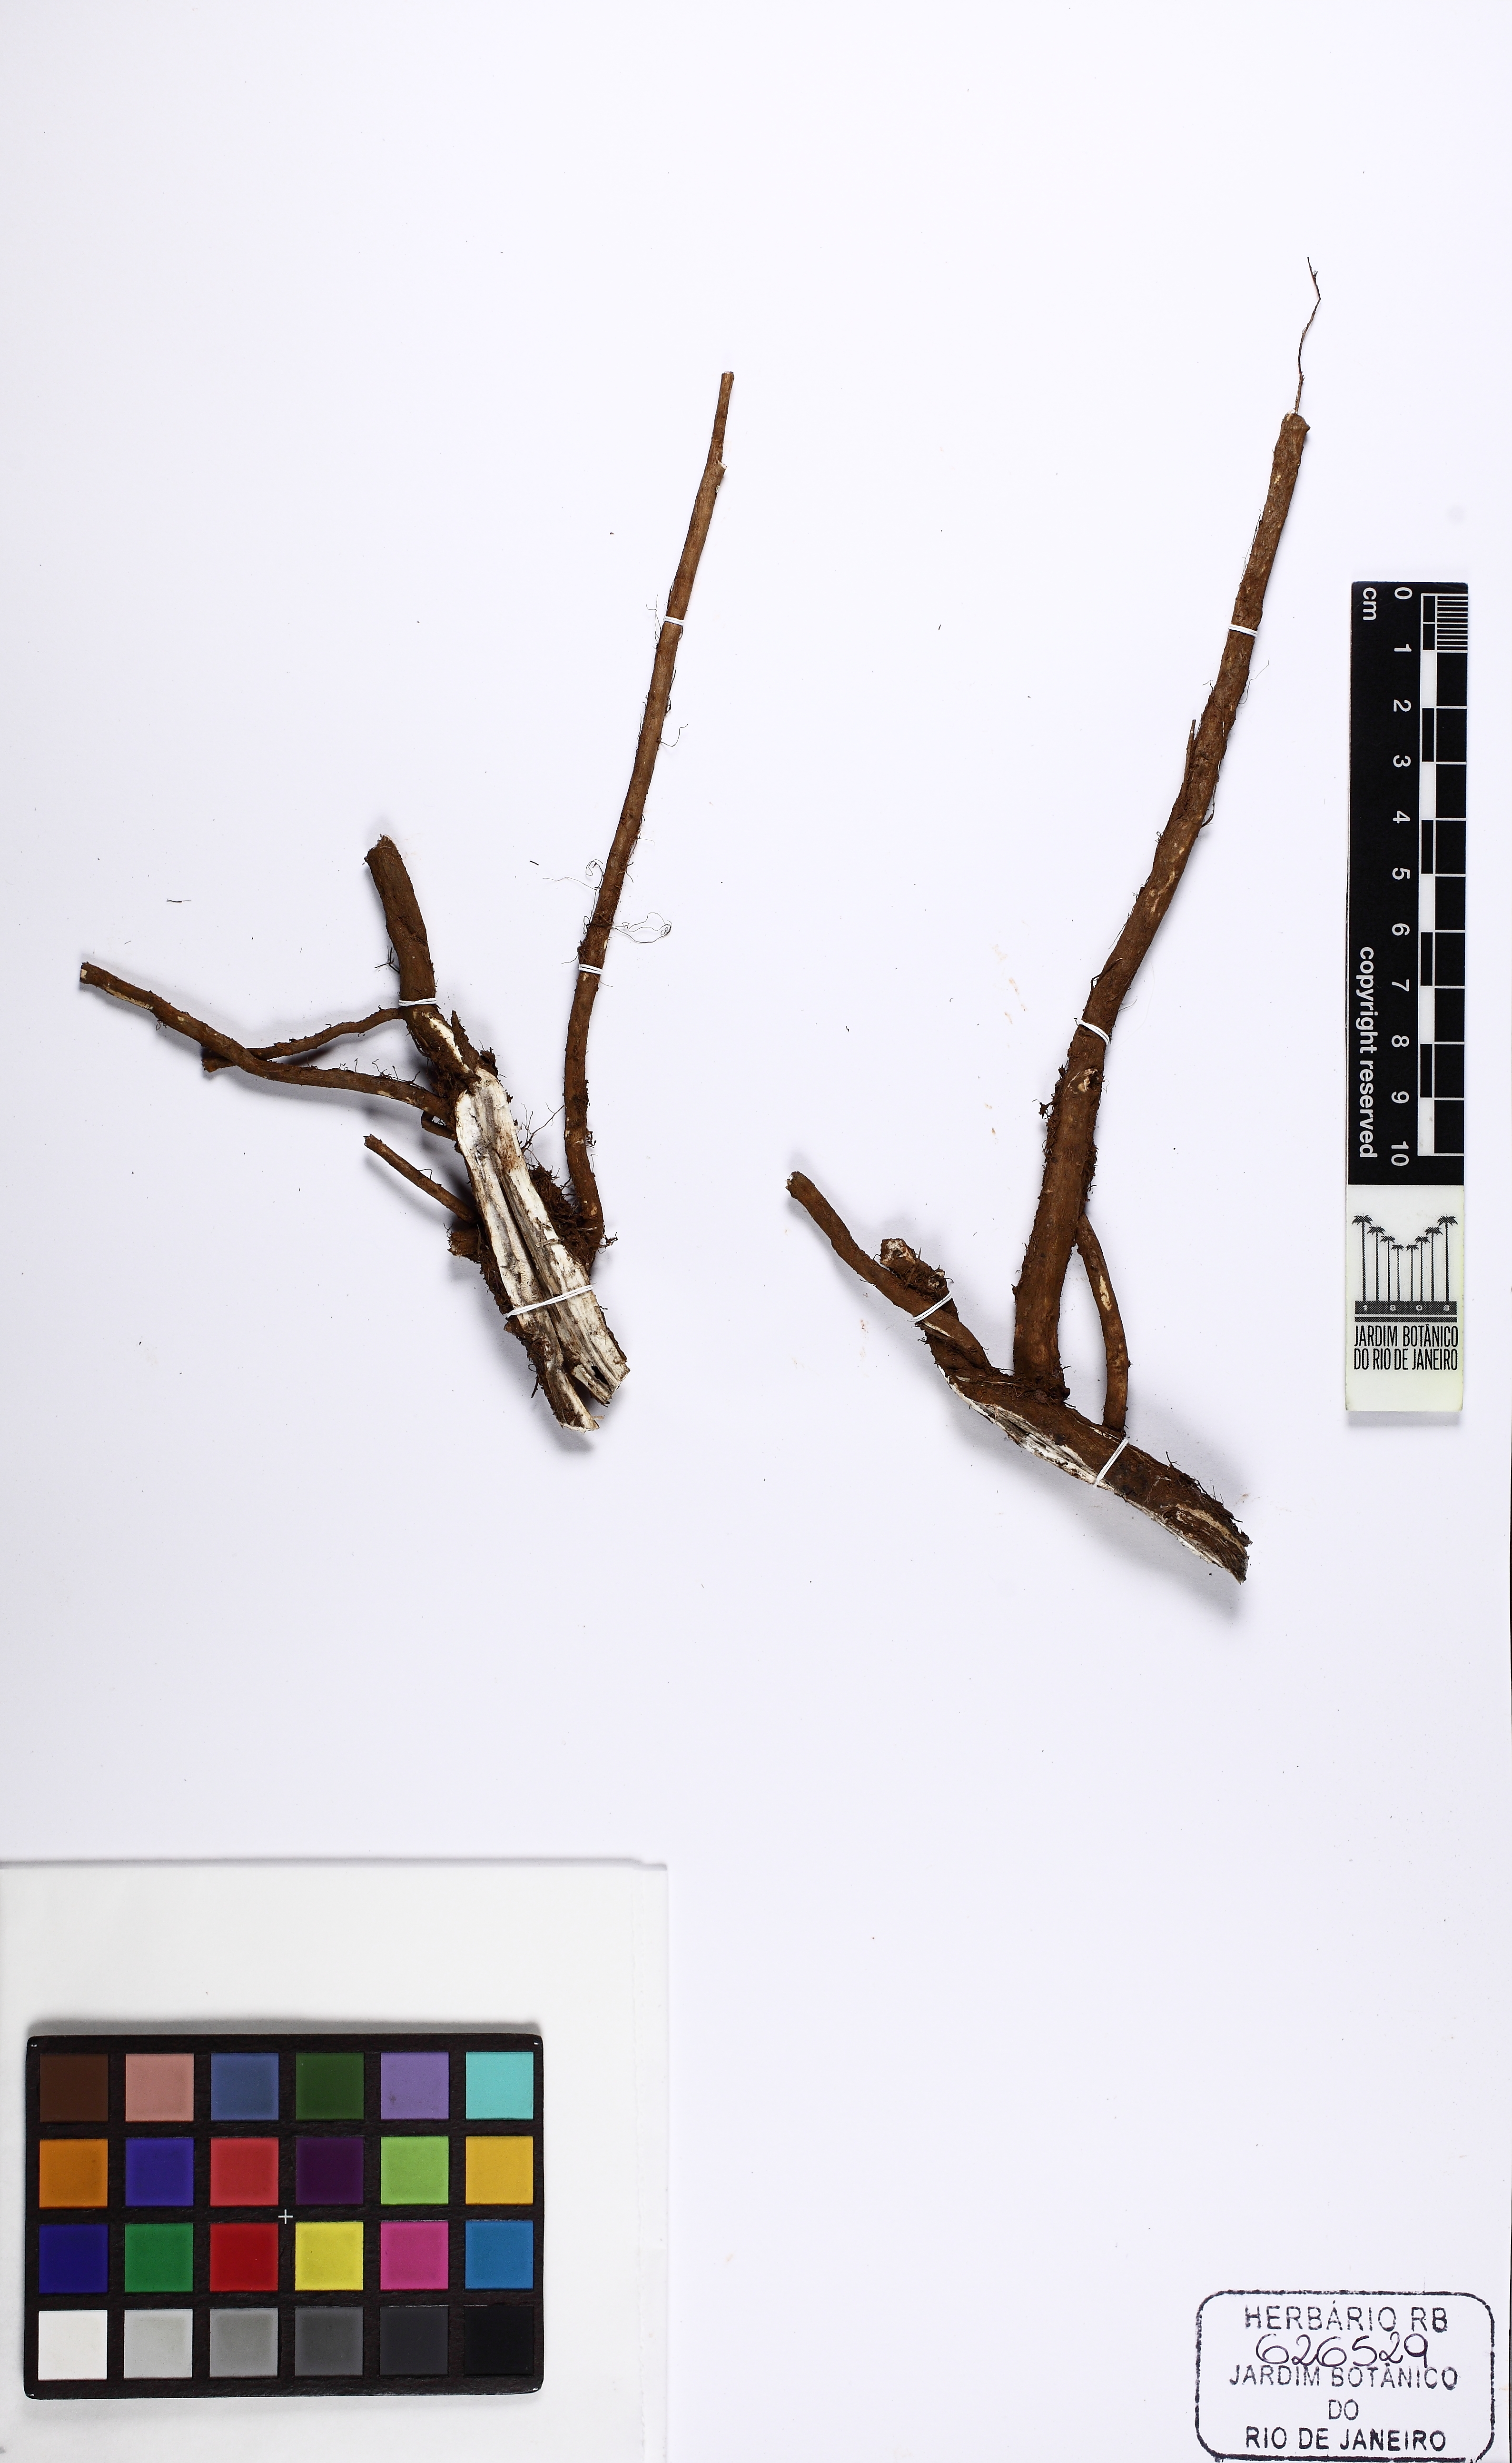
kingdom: Plantae
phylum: Tracheophyta
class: Magnoliopsida
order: Fabales
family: Fabaceae
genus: Aeschynomene
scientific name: Aeschynomene rudis
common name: Rough joint-vetch
